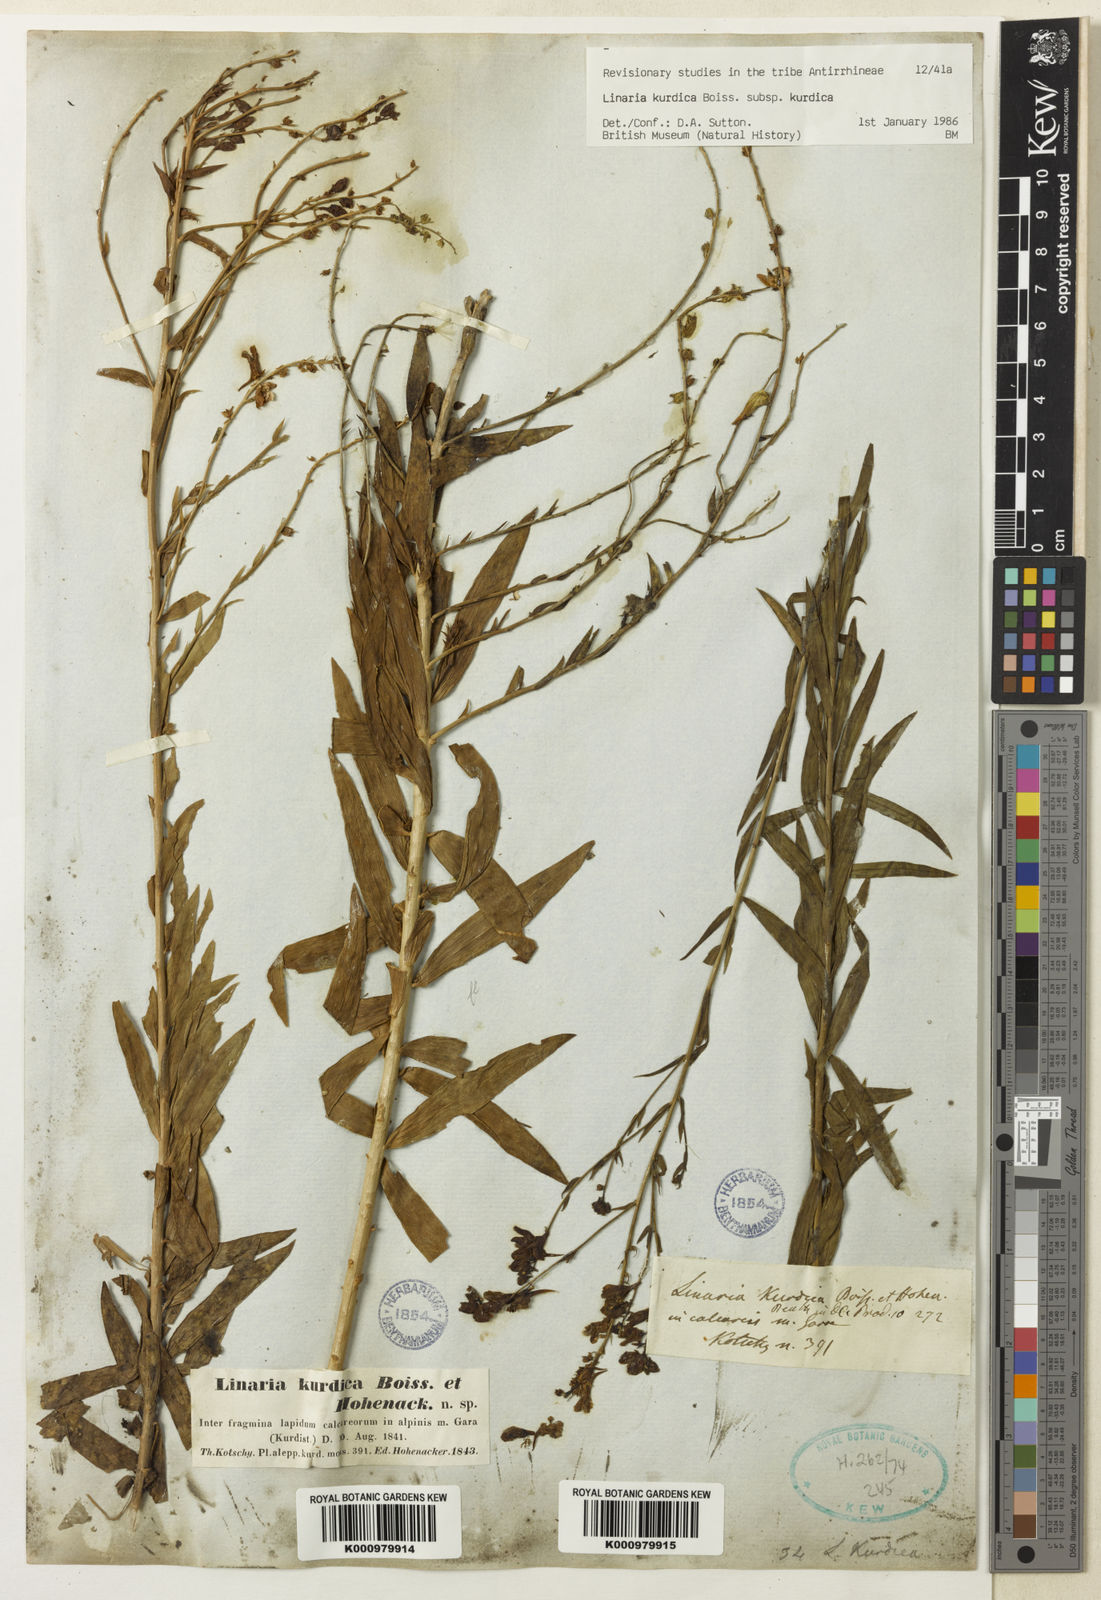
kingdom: Plantae
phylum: Tracheophyta
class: Magnoliopsida
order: Lamiales
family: Plantaginaceae
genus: Linaria
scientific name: Linaria kurdica
